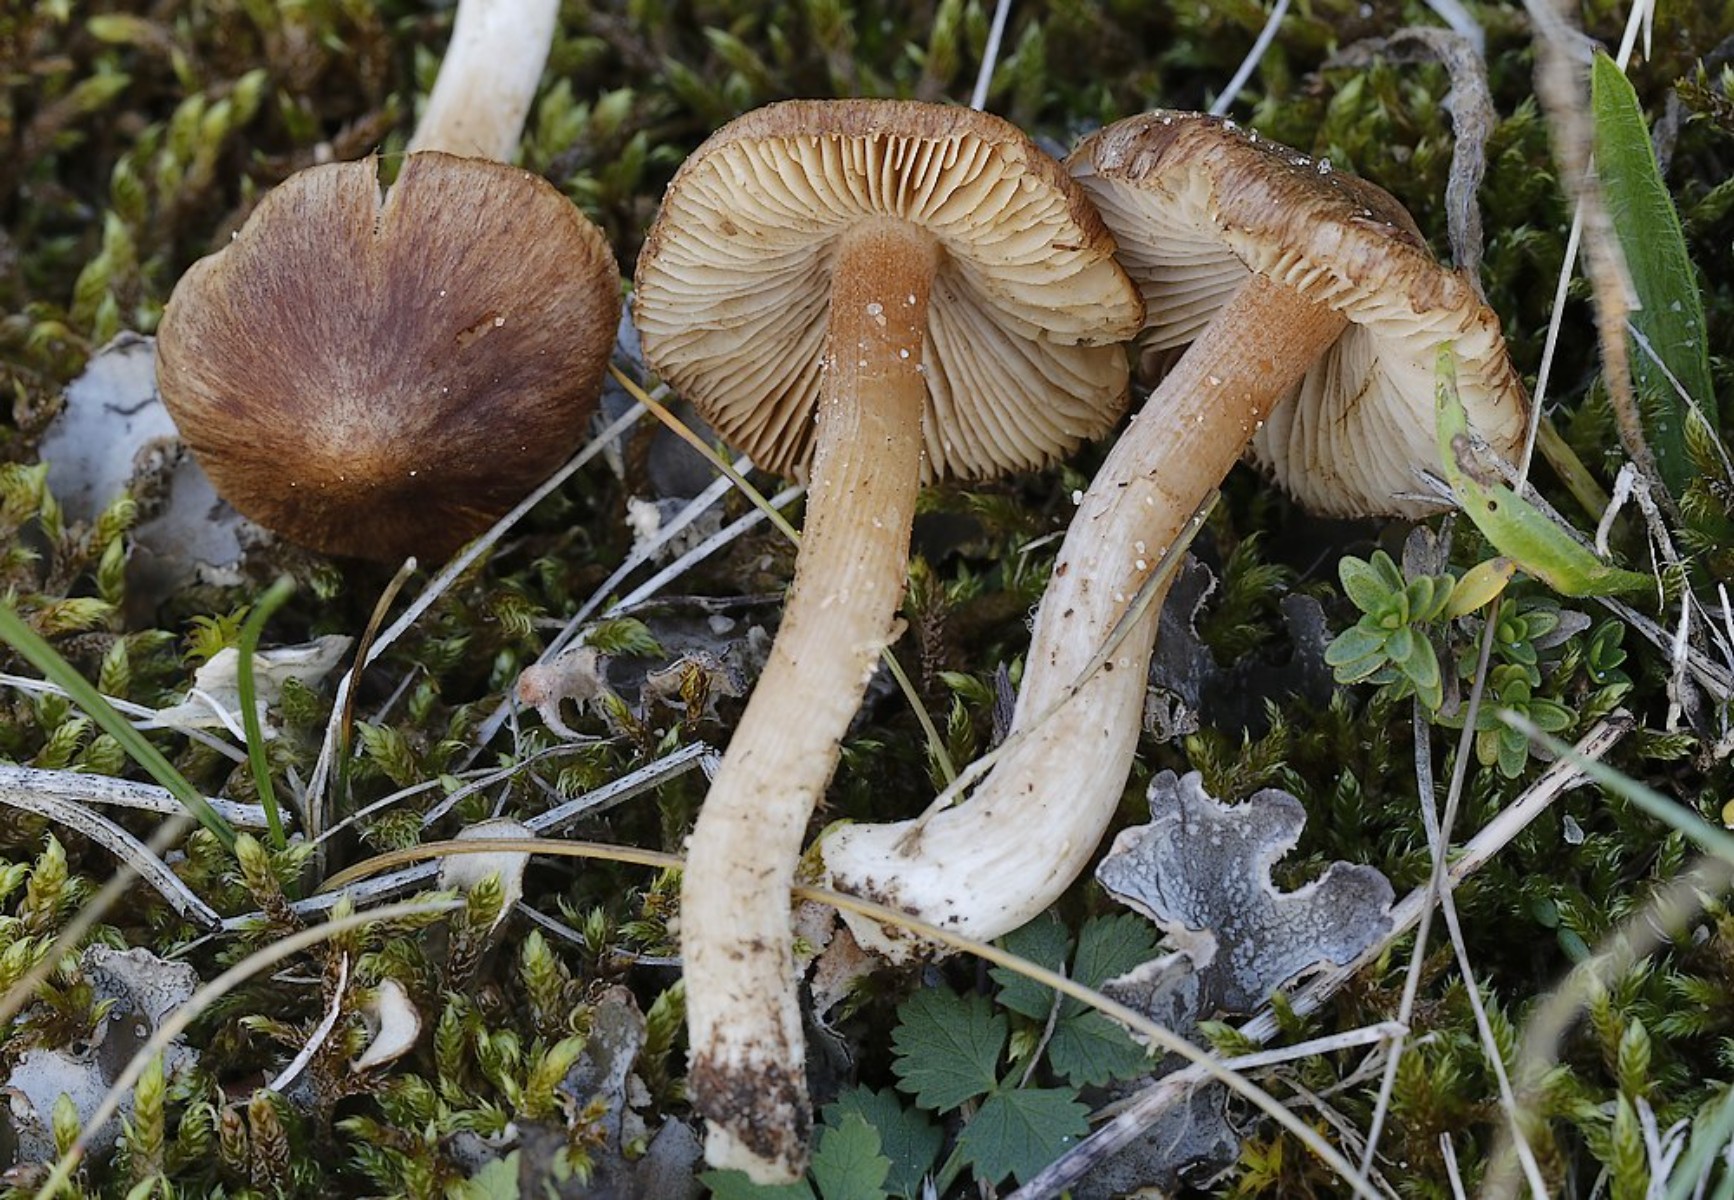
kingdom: Fungi
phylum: Basidiomycota
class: Agaricomycetes
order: Agaricales
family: Inocybaceae
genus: Inocybe
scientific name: Inocybe
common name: trævlhat
